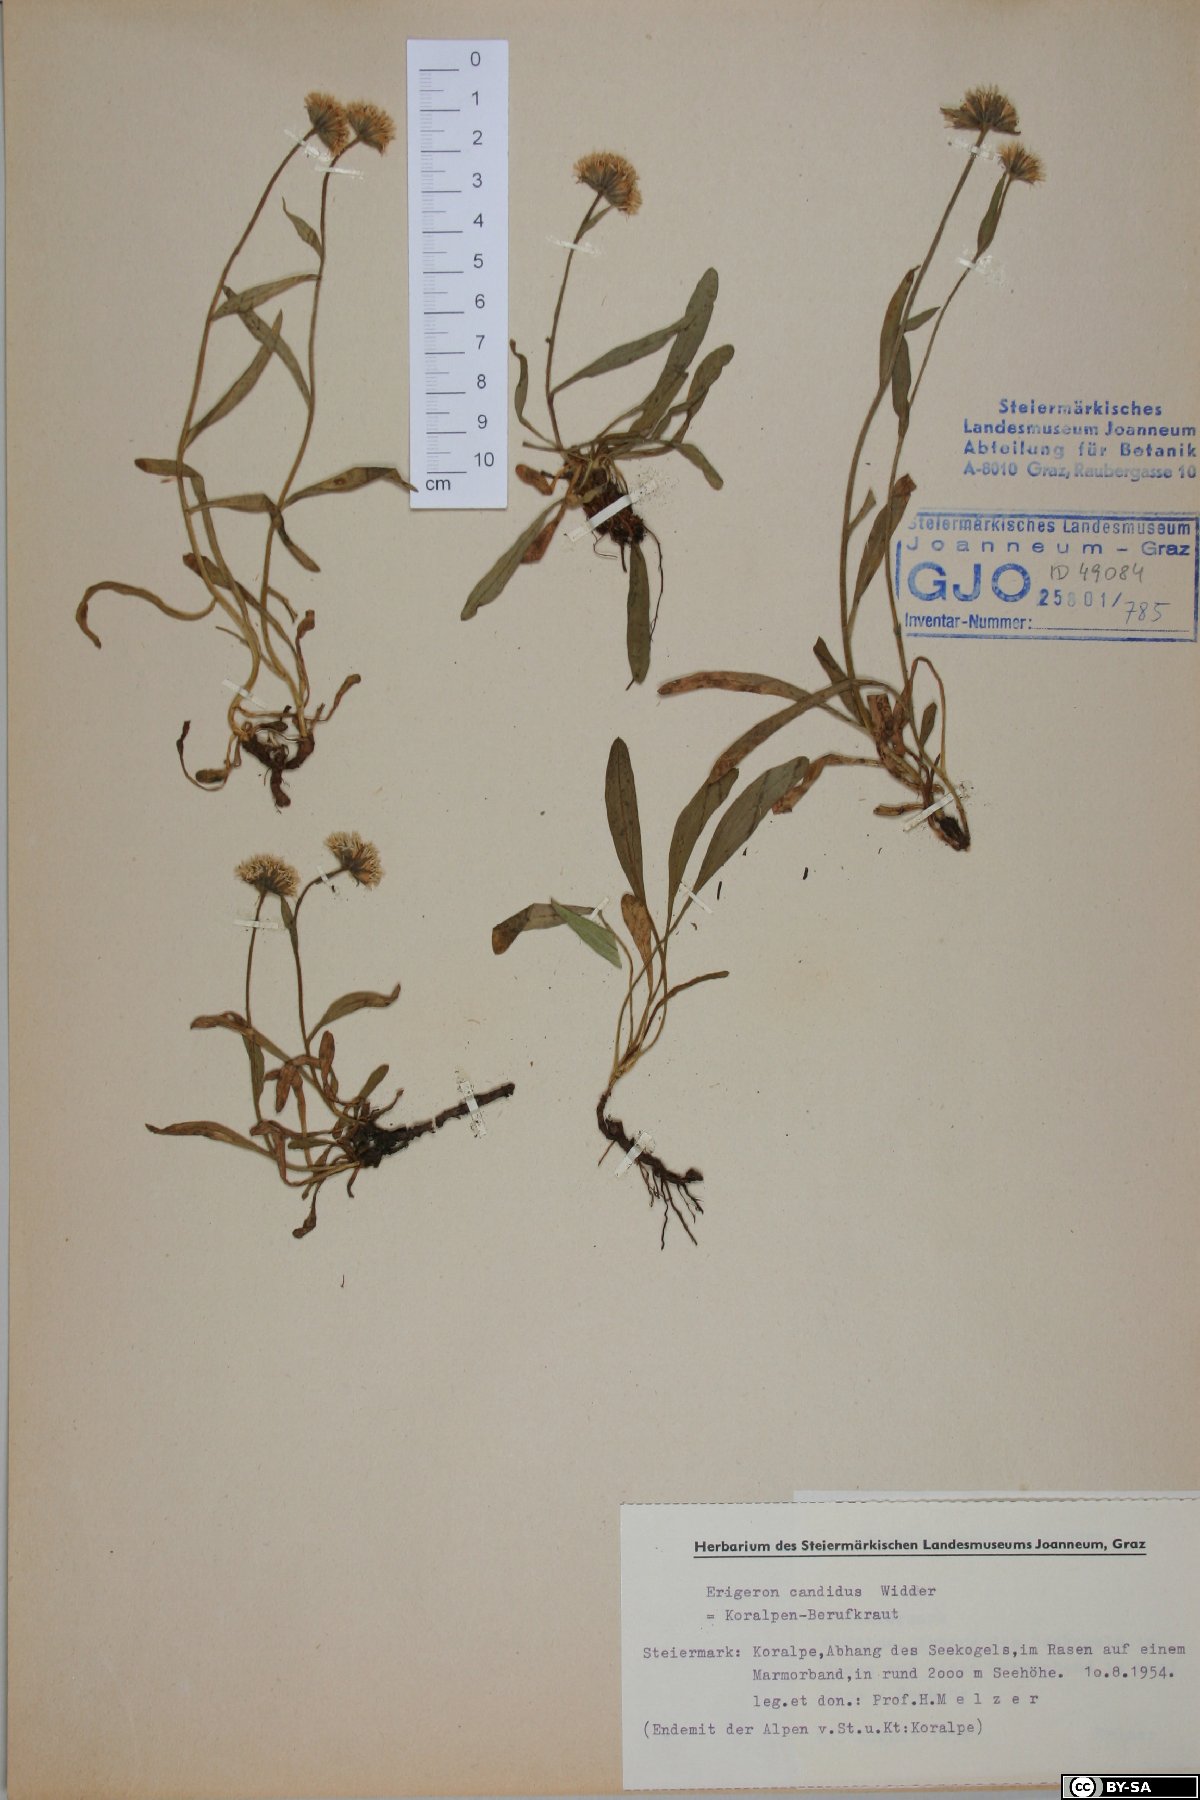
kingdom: Plantae
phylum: Tracheophyta
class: Magnoliopsida
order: Asterales
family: Asteraceae
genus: Erigeron
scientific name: Erigeron glabratus
